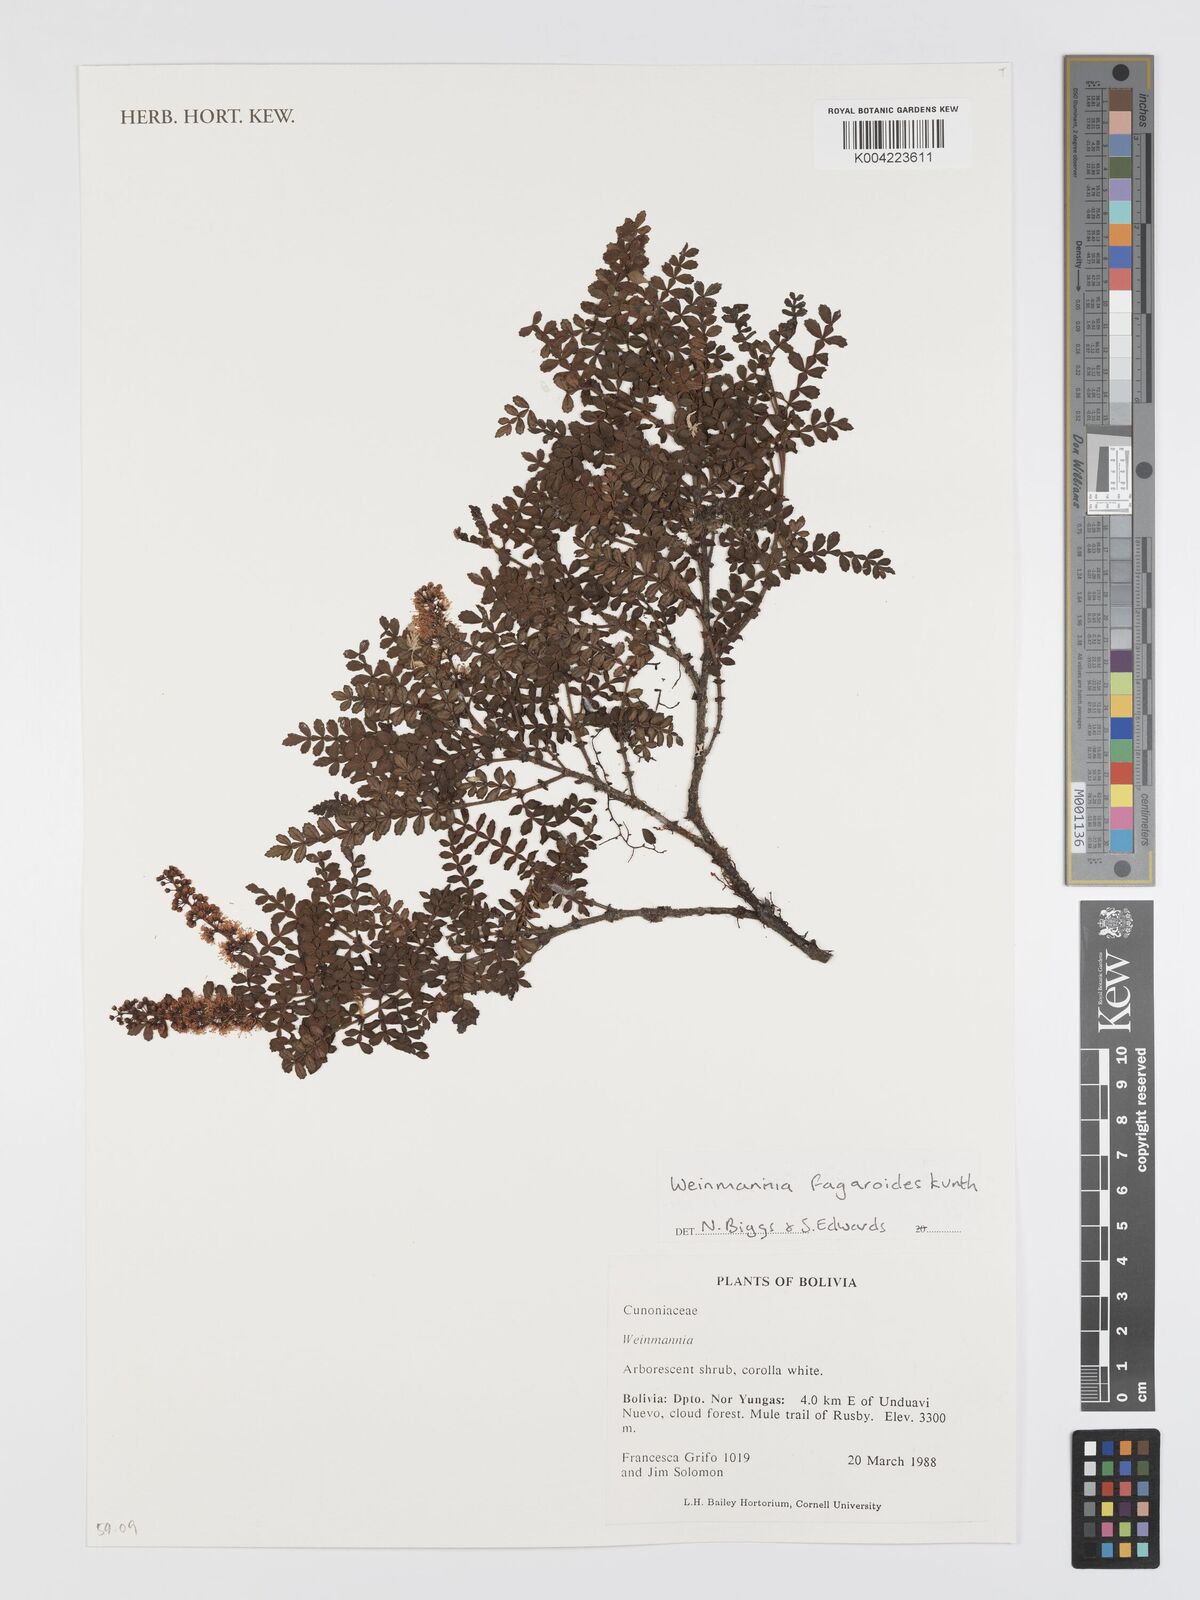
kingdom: Plantae
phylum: Tracheophyta
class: Magnoliopsida
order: Oxalidales
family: Cunoniaceae
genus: Weinmannia
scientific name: Weinmannia fagaroides
